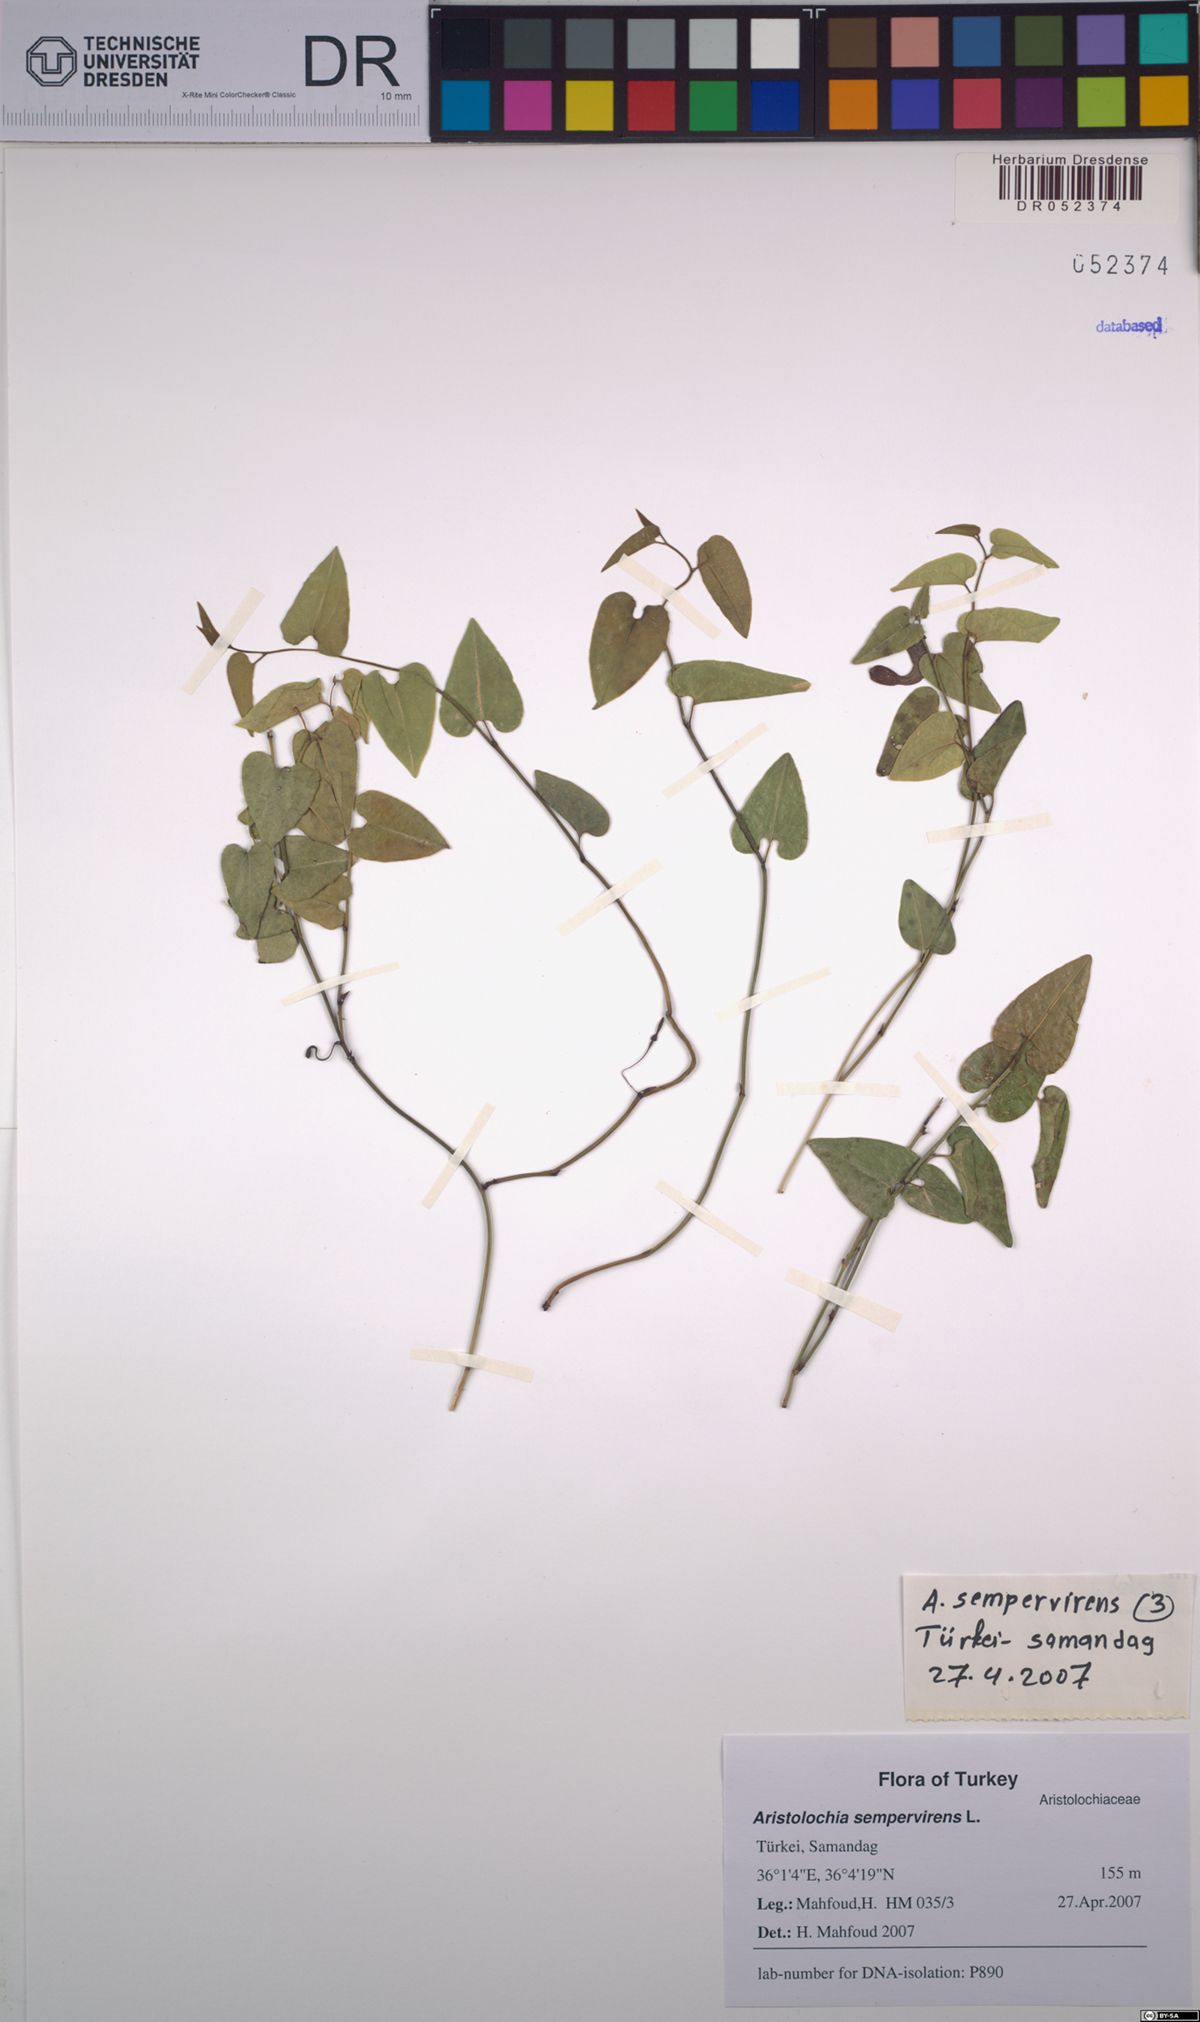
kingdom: Plantae
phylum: Tracheophyta
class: Magnoliopsida
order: Piperales
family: Aristolochiaceae
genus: Aristolochia
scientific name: Aristolochia sempervirens
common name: Long birthwort
